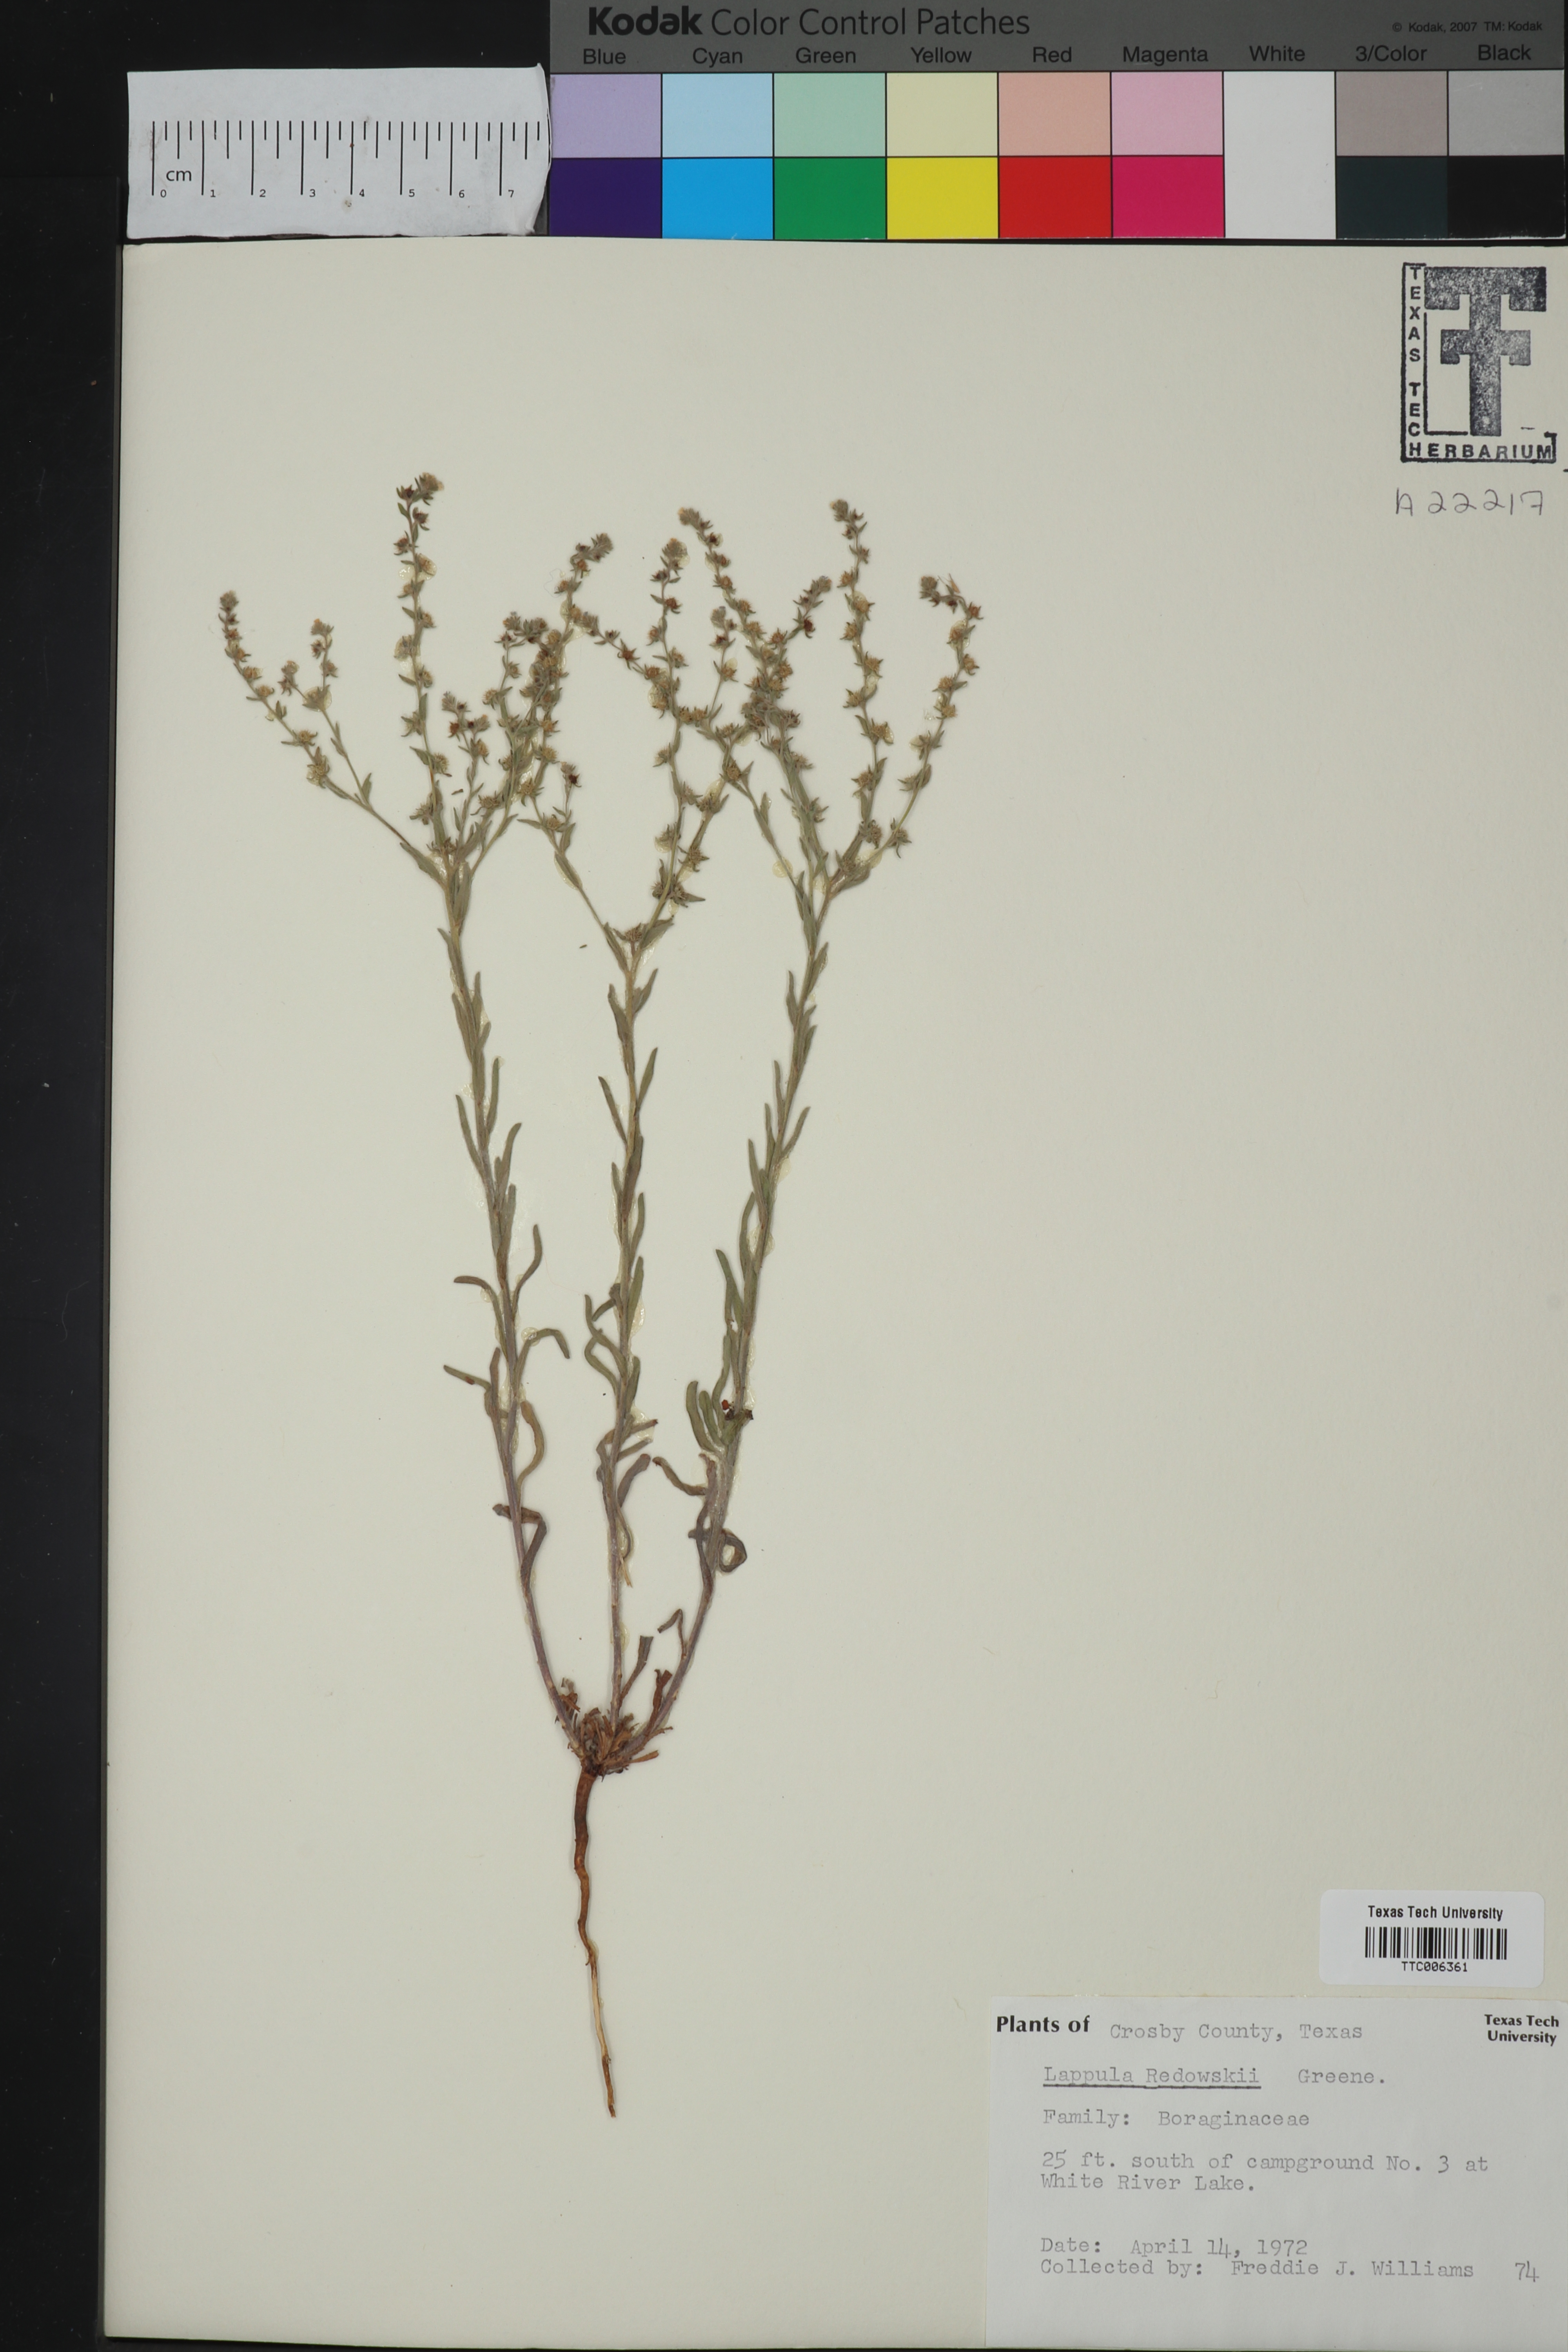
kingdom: Plantae
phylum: Tracheophyta
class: Magnoliopsida
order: Boraginales
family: Boraginaceae
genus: Lappula
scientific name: Lappula redowskii
